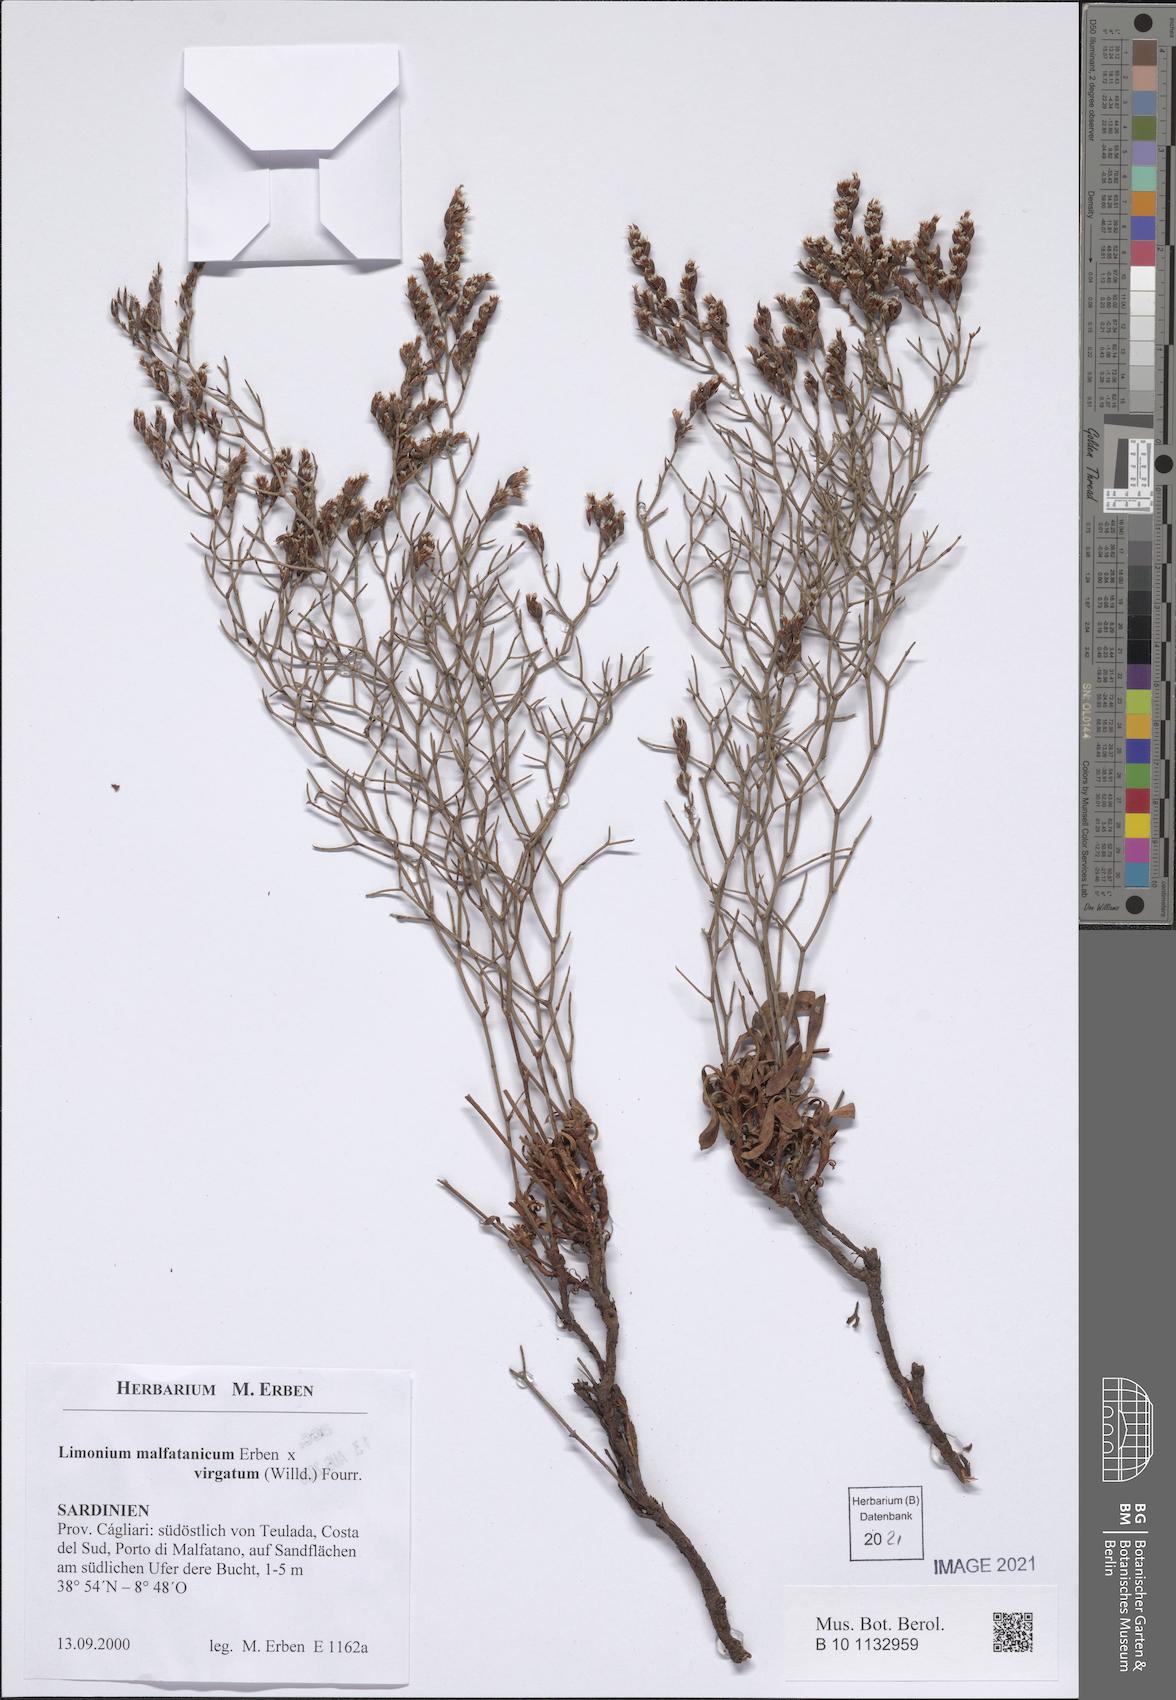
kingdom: Plantae
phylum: Tracheophyta
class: Magnoliopsida
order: Caryophyllales
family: Plumbaginaceae
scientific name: Plumbaginaceae
